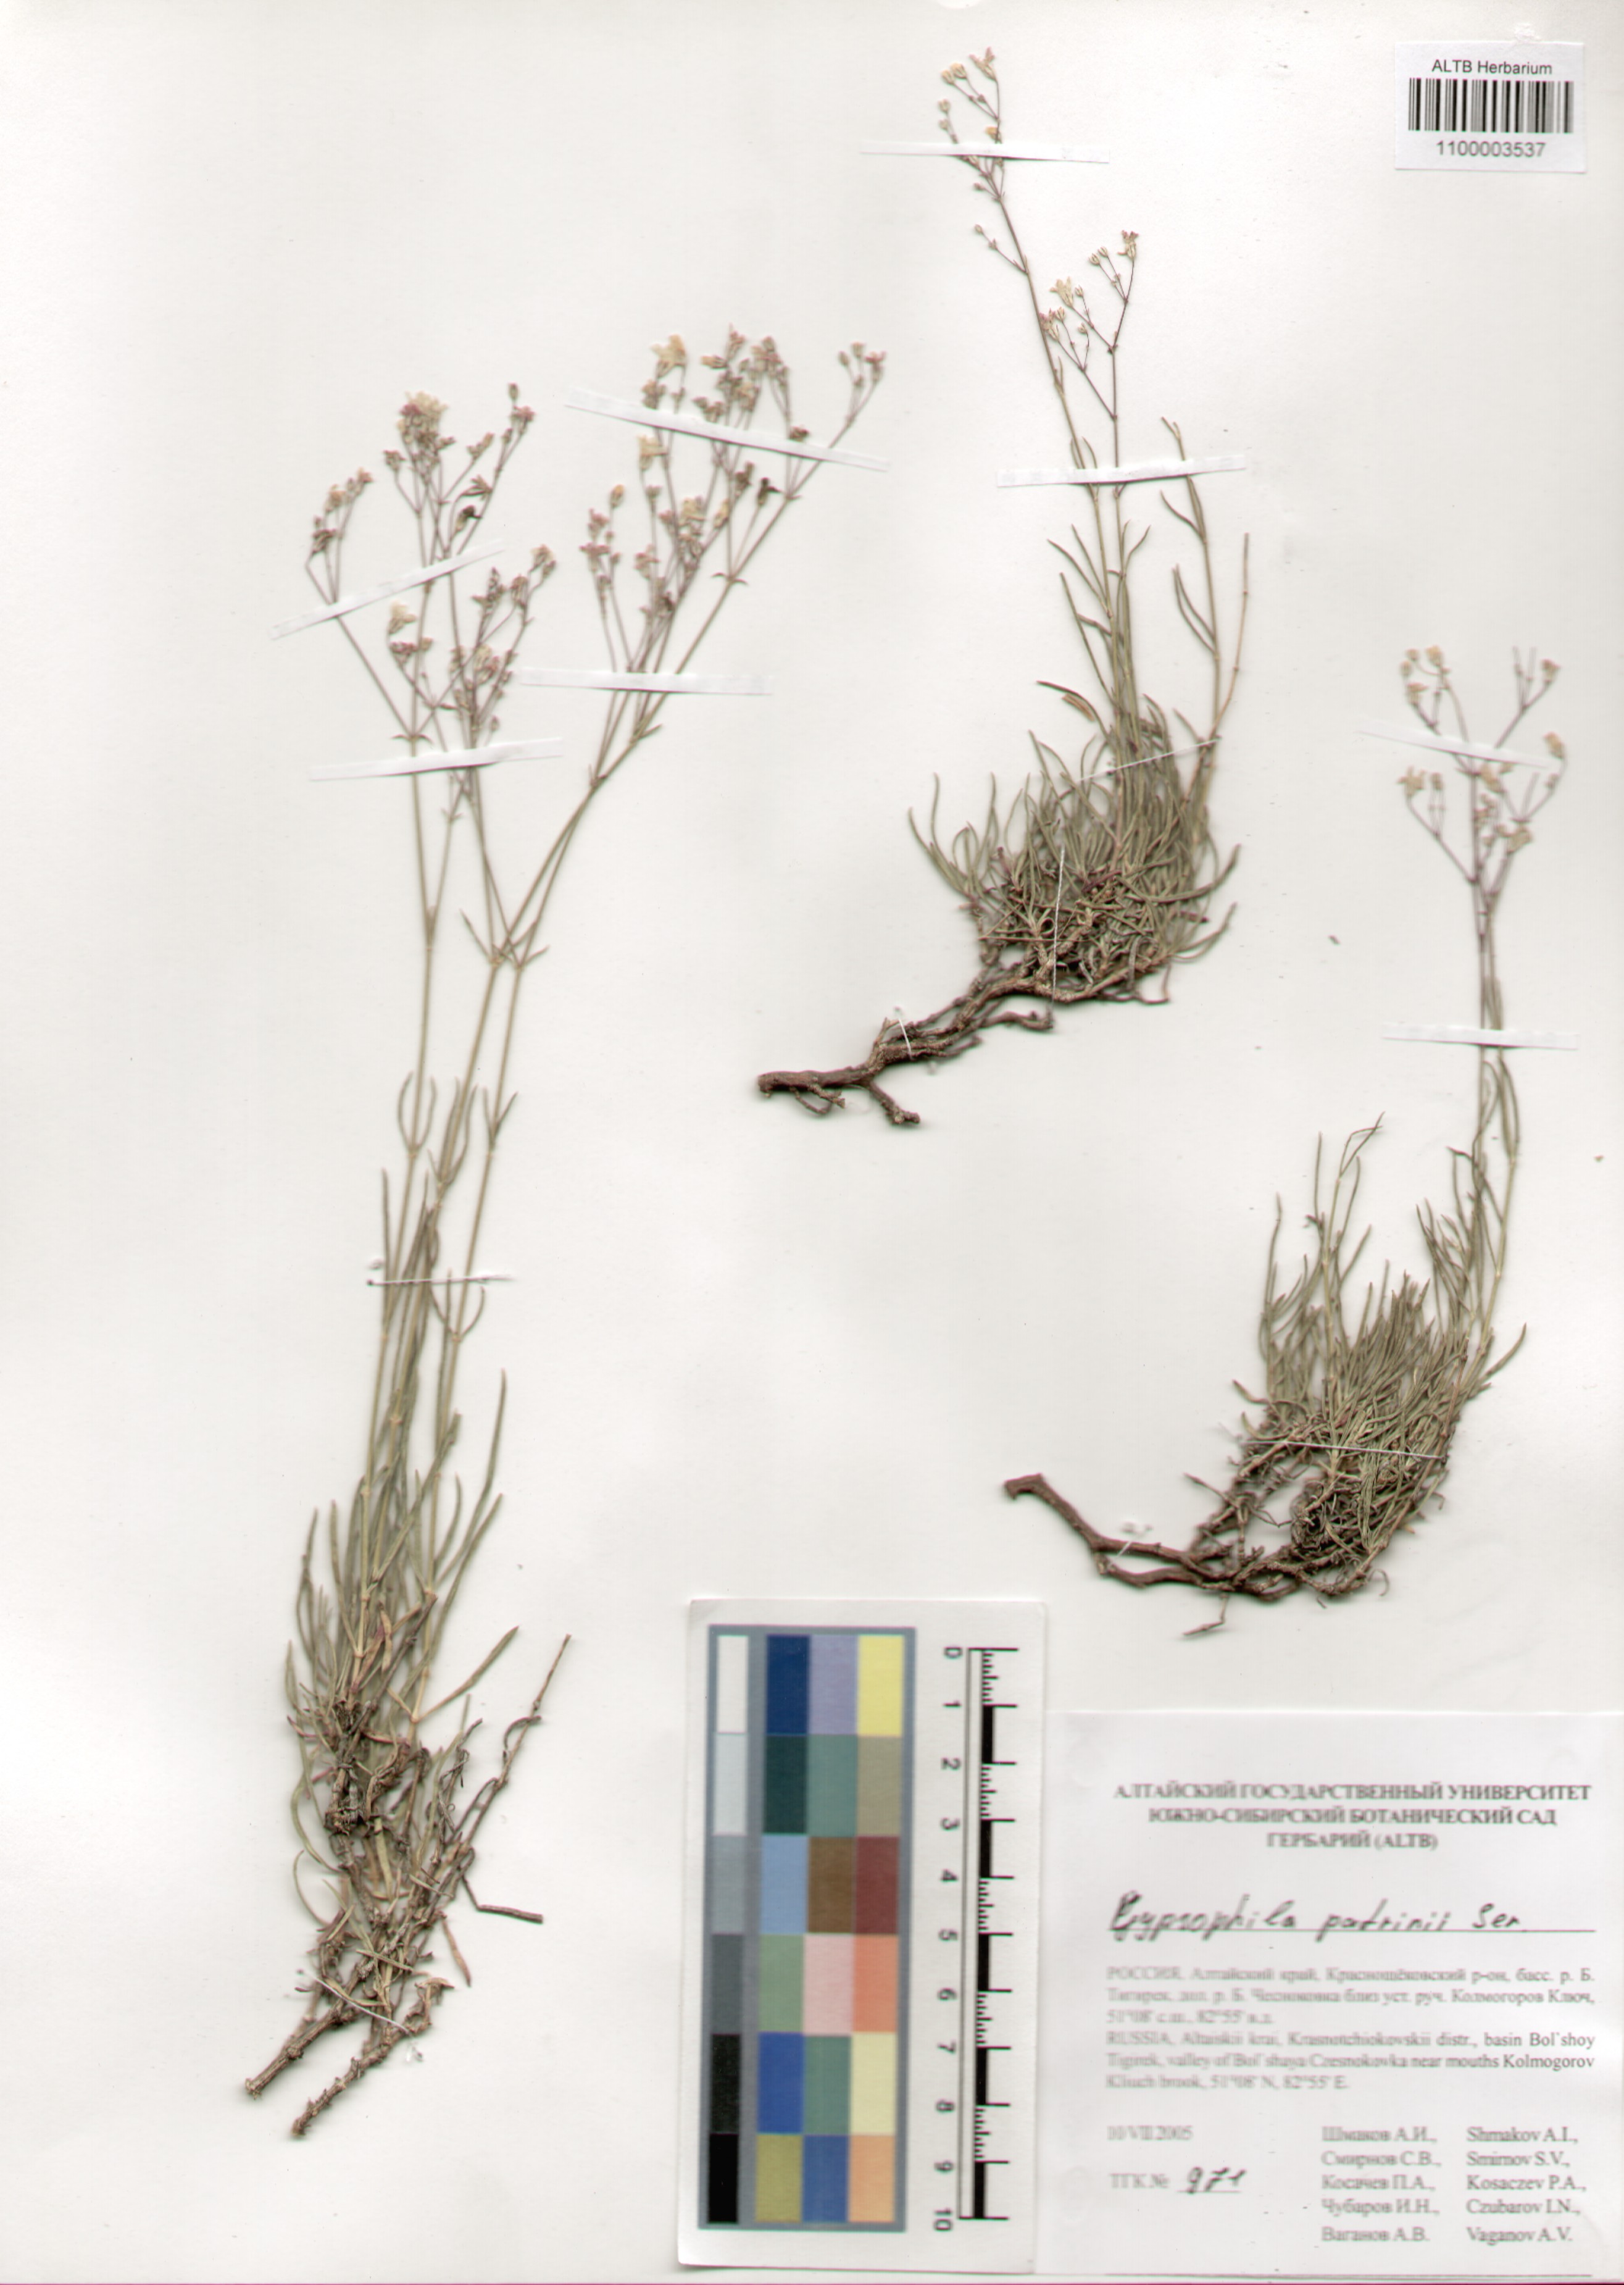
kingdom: Plantae
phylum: Tracheophyta
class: Magnoliopsida
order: Caryophyllales
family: Caryophyllaceae
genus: Gypsophila
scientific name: Gypsophila patrinii
